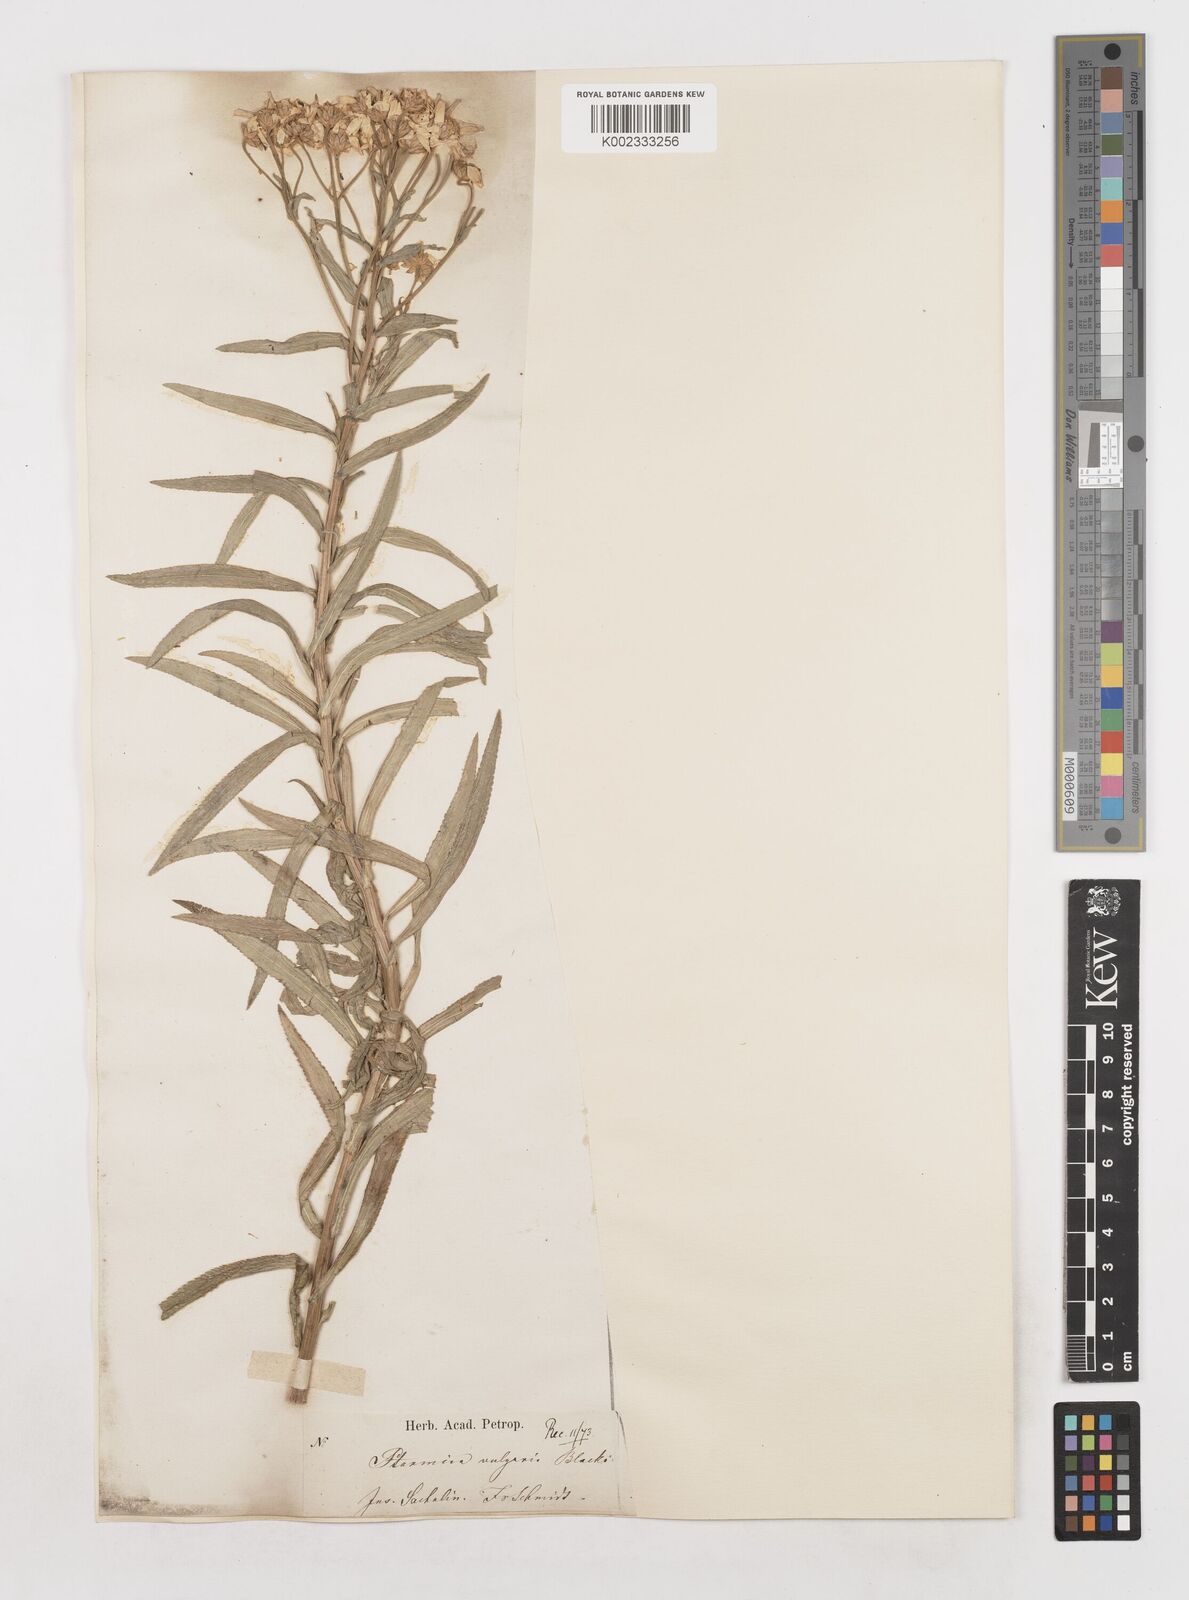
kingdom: Plantae
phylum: Tracheophyta
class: Magnoliopsida
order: Asterales
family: Asteraceae
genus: Achillea
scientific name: Achillea ptarmica
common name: Sneezeweed
